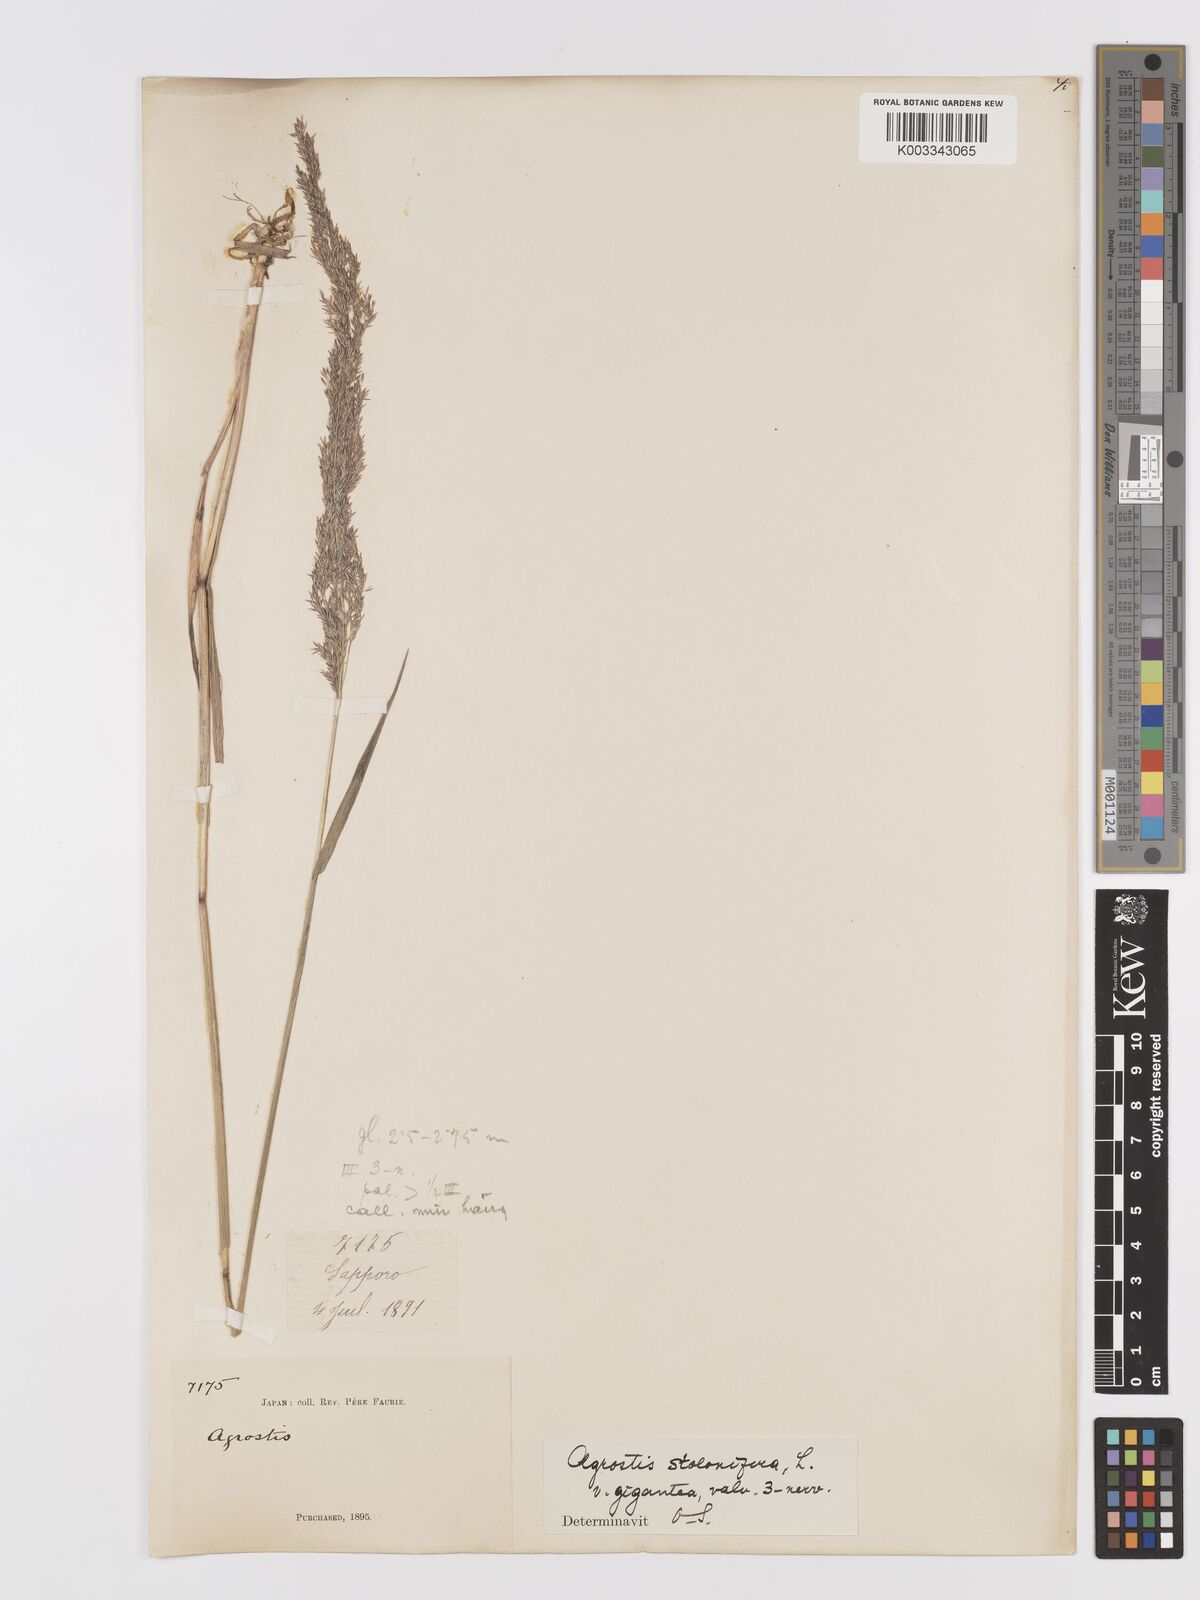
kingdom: Plantae
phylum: Tracheophyta
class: Liliopsida
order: Poales
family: Poaceae
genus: Agrostis
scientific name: Agrostis gigantea
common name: Black bent
